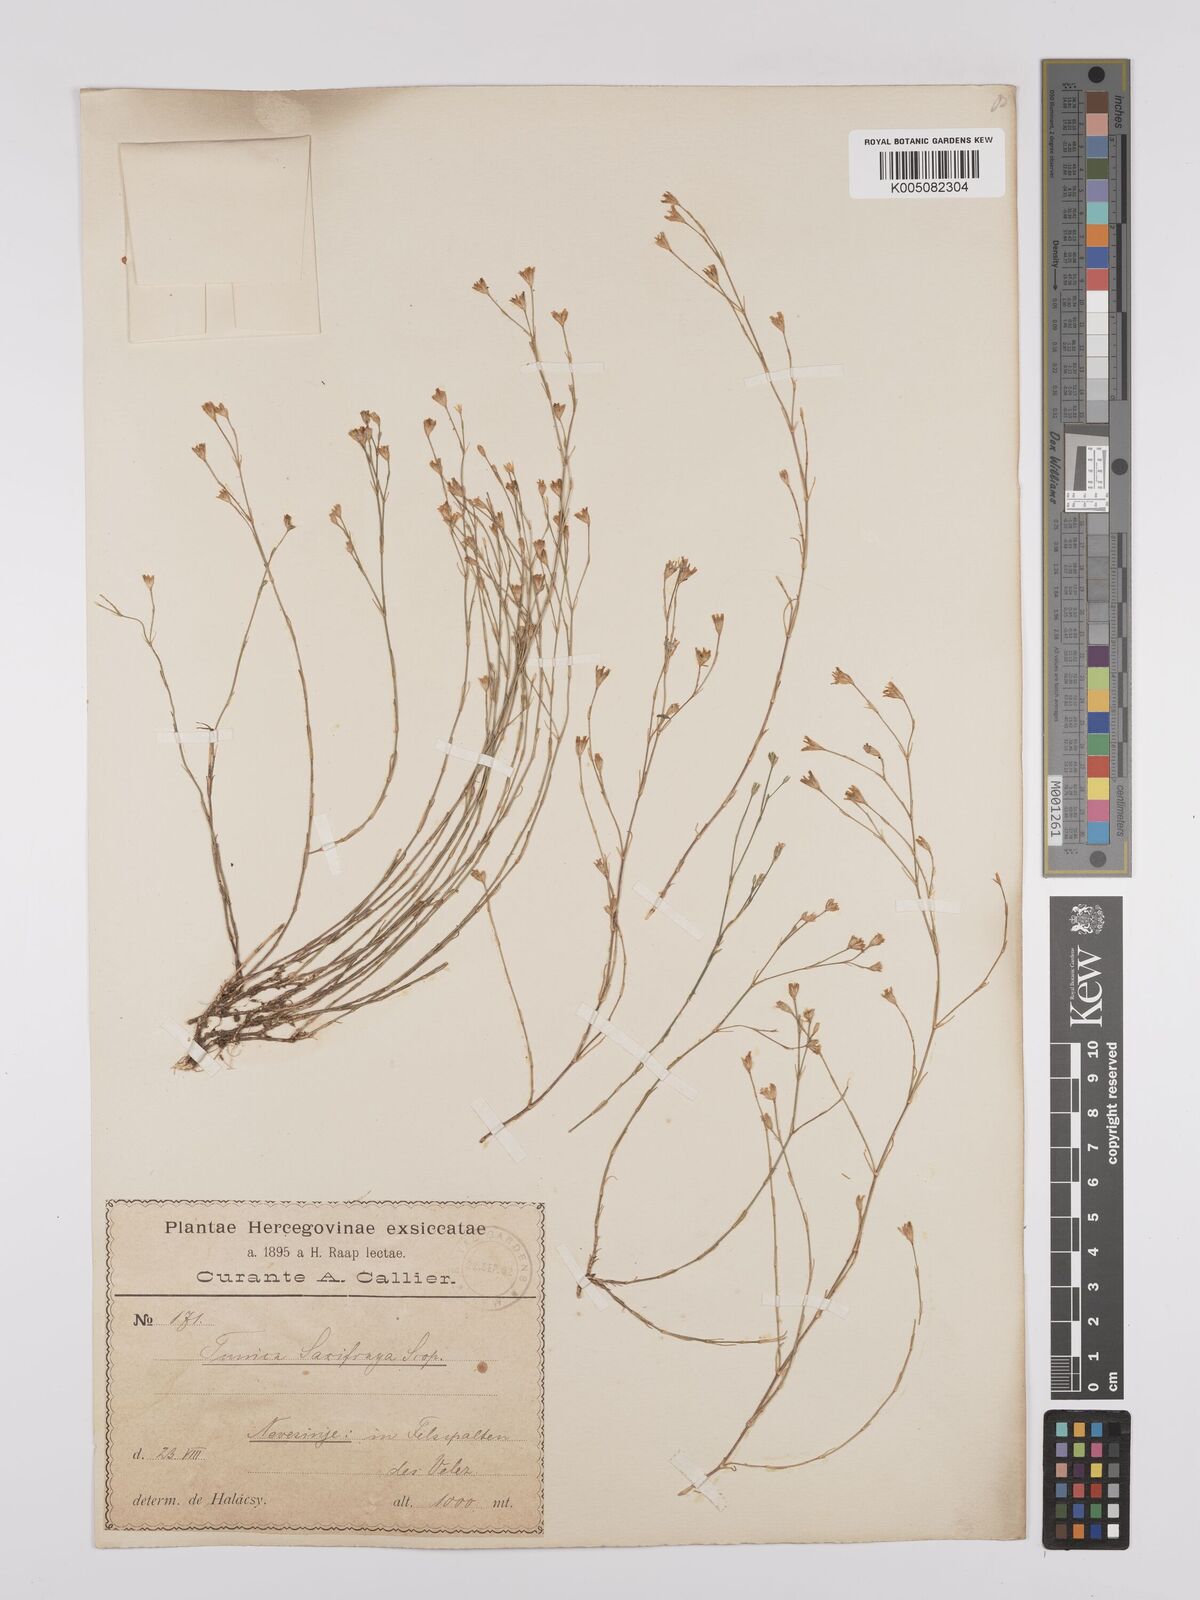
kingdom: Plantae
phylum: Tracheophyta
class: Magnoliopsida
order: Caryophyllales
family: Caryophyllaceae
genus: Petrorhagia
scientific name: Petrorhagia saxifraga
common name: Tunicflower
